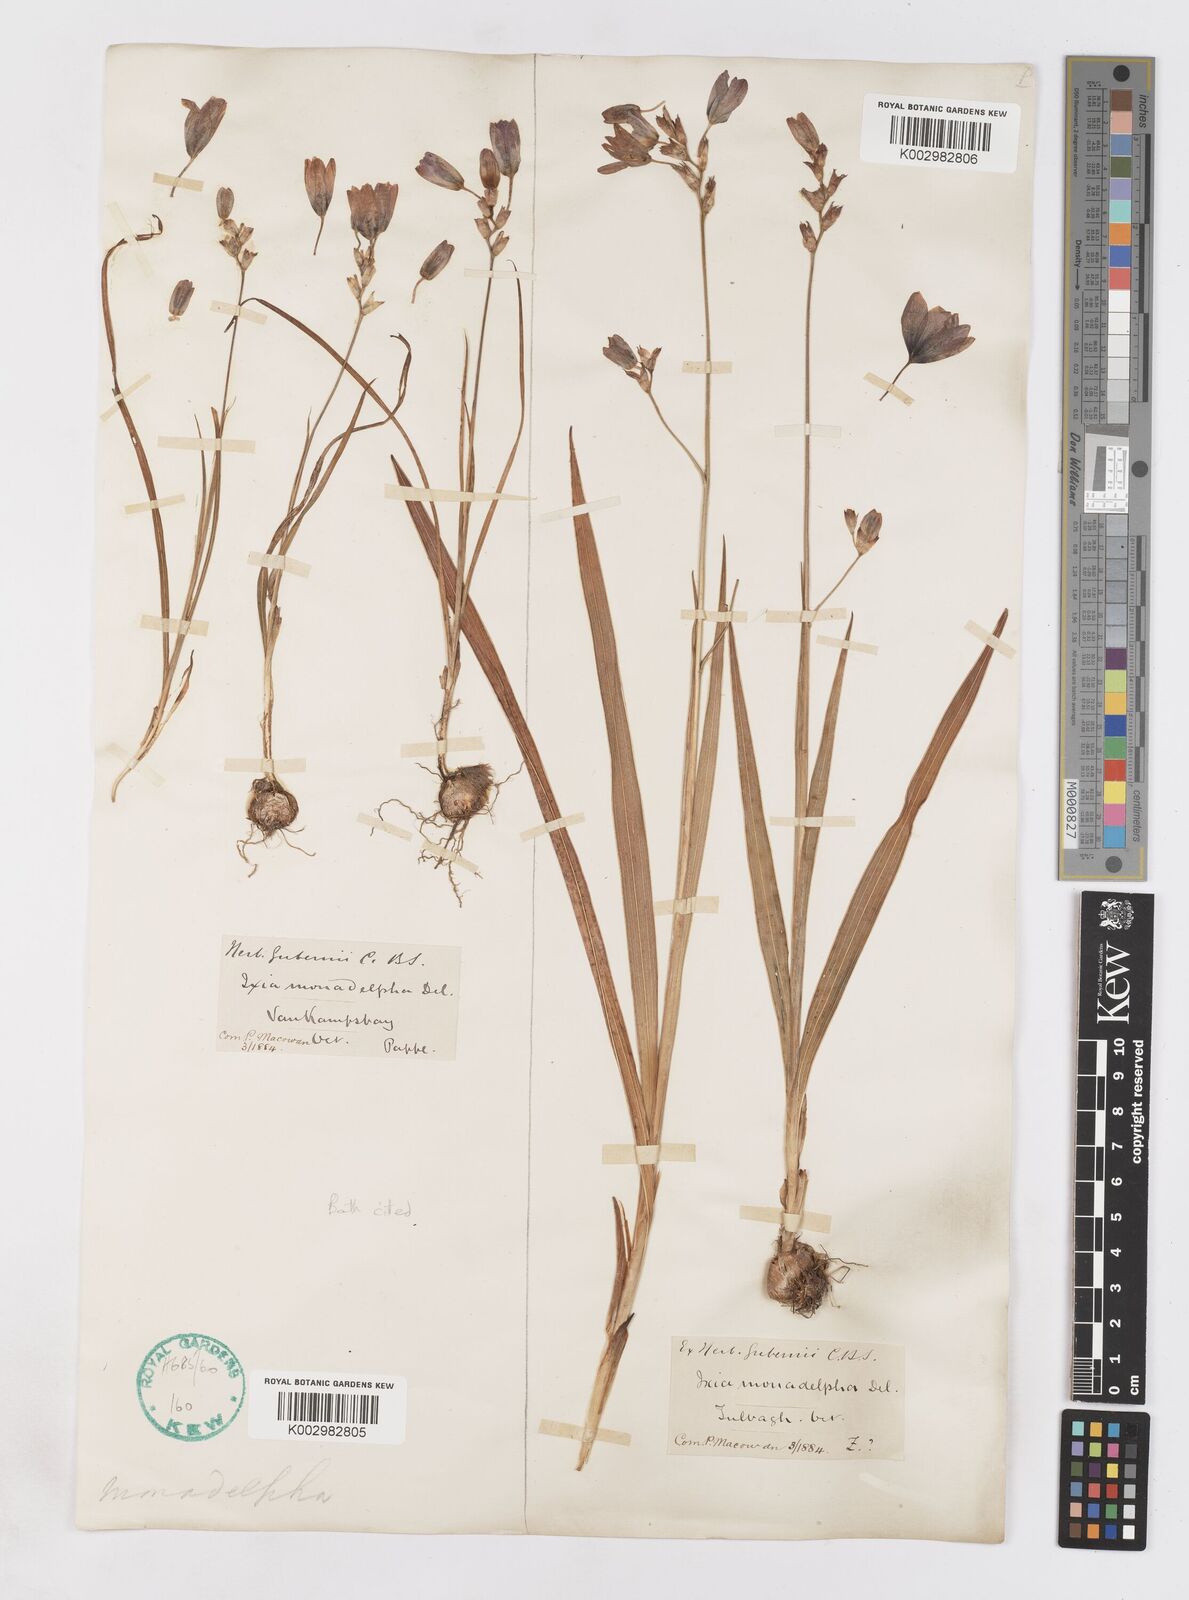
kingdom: Plantae
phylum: Tracheophyta
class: Liliopsida
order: Asparagales
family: Iridaceae
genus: Ixia
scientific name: Ixia monadelpha
